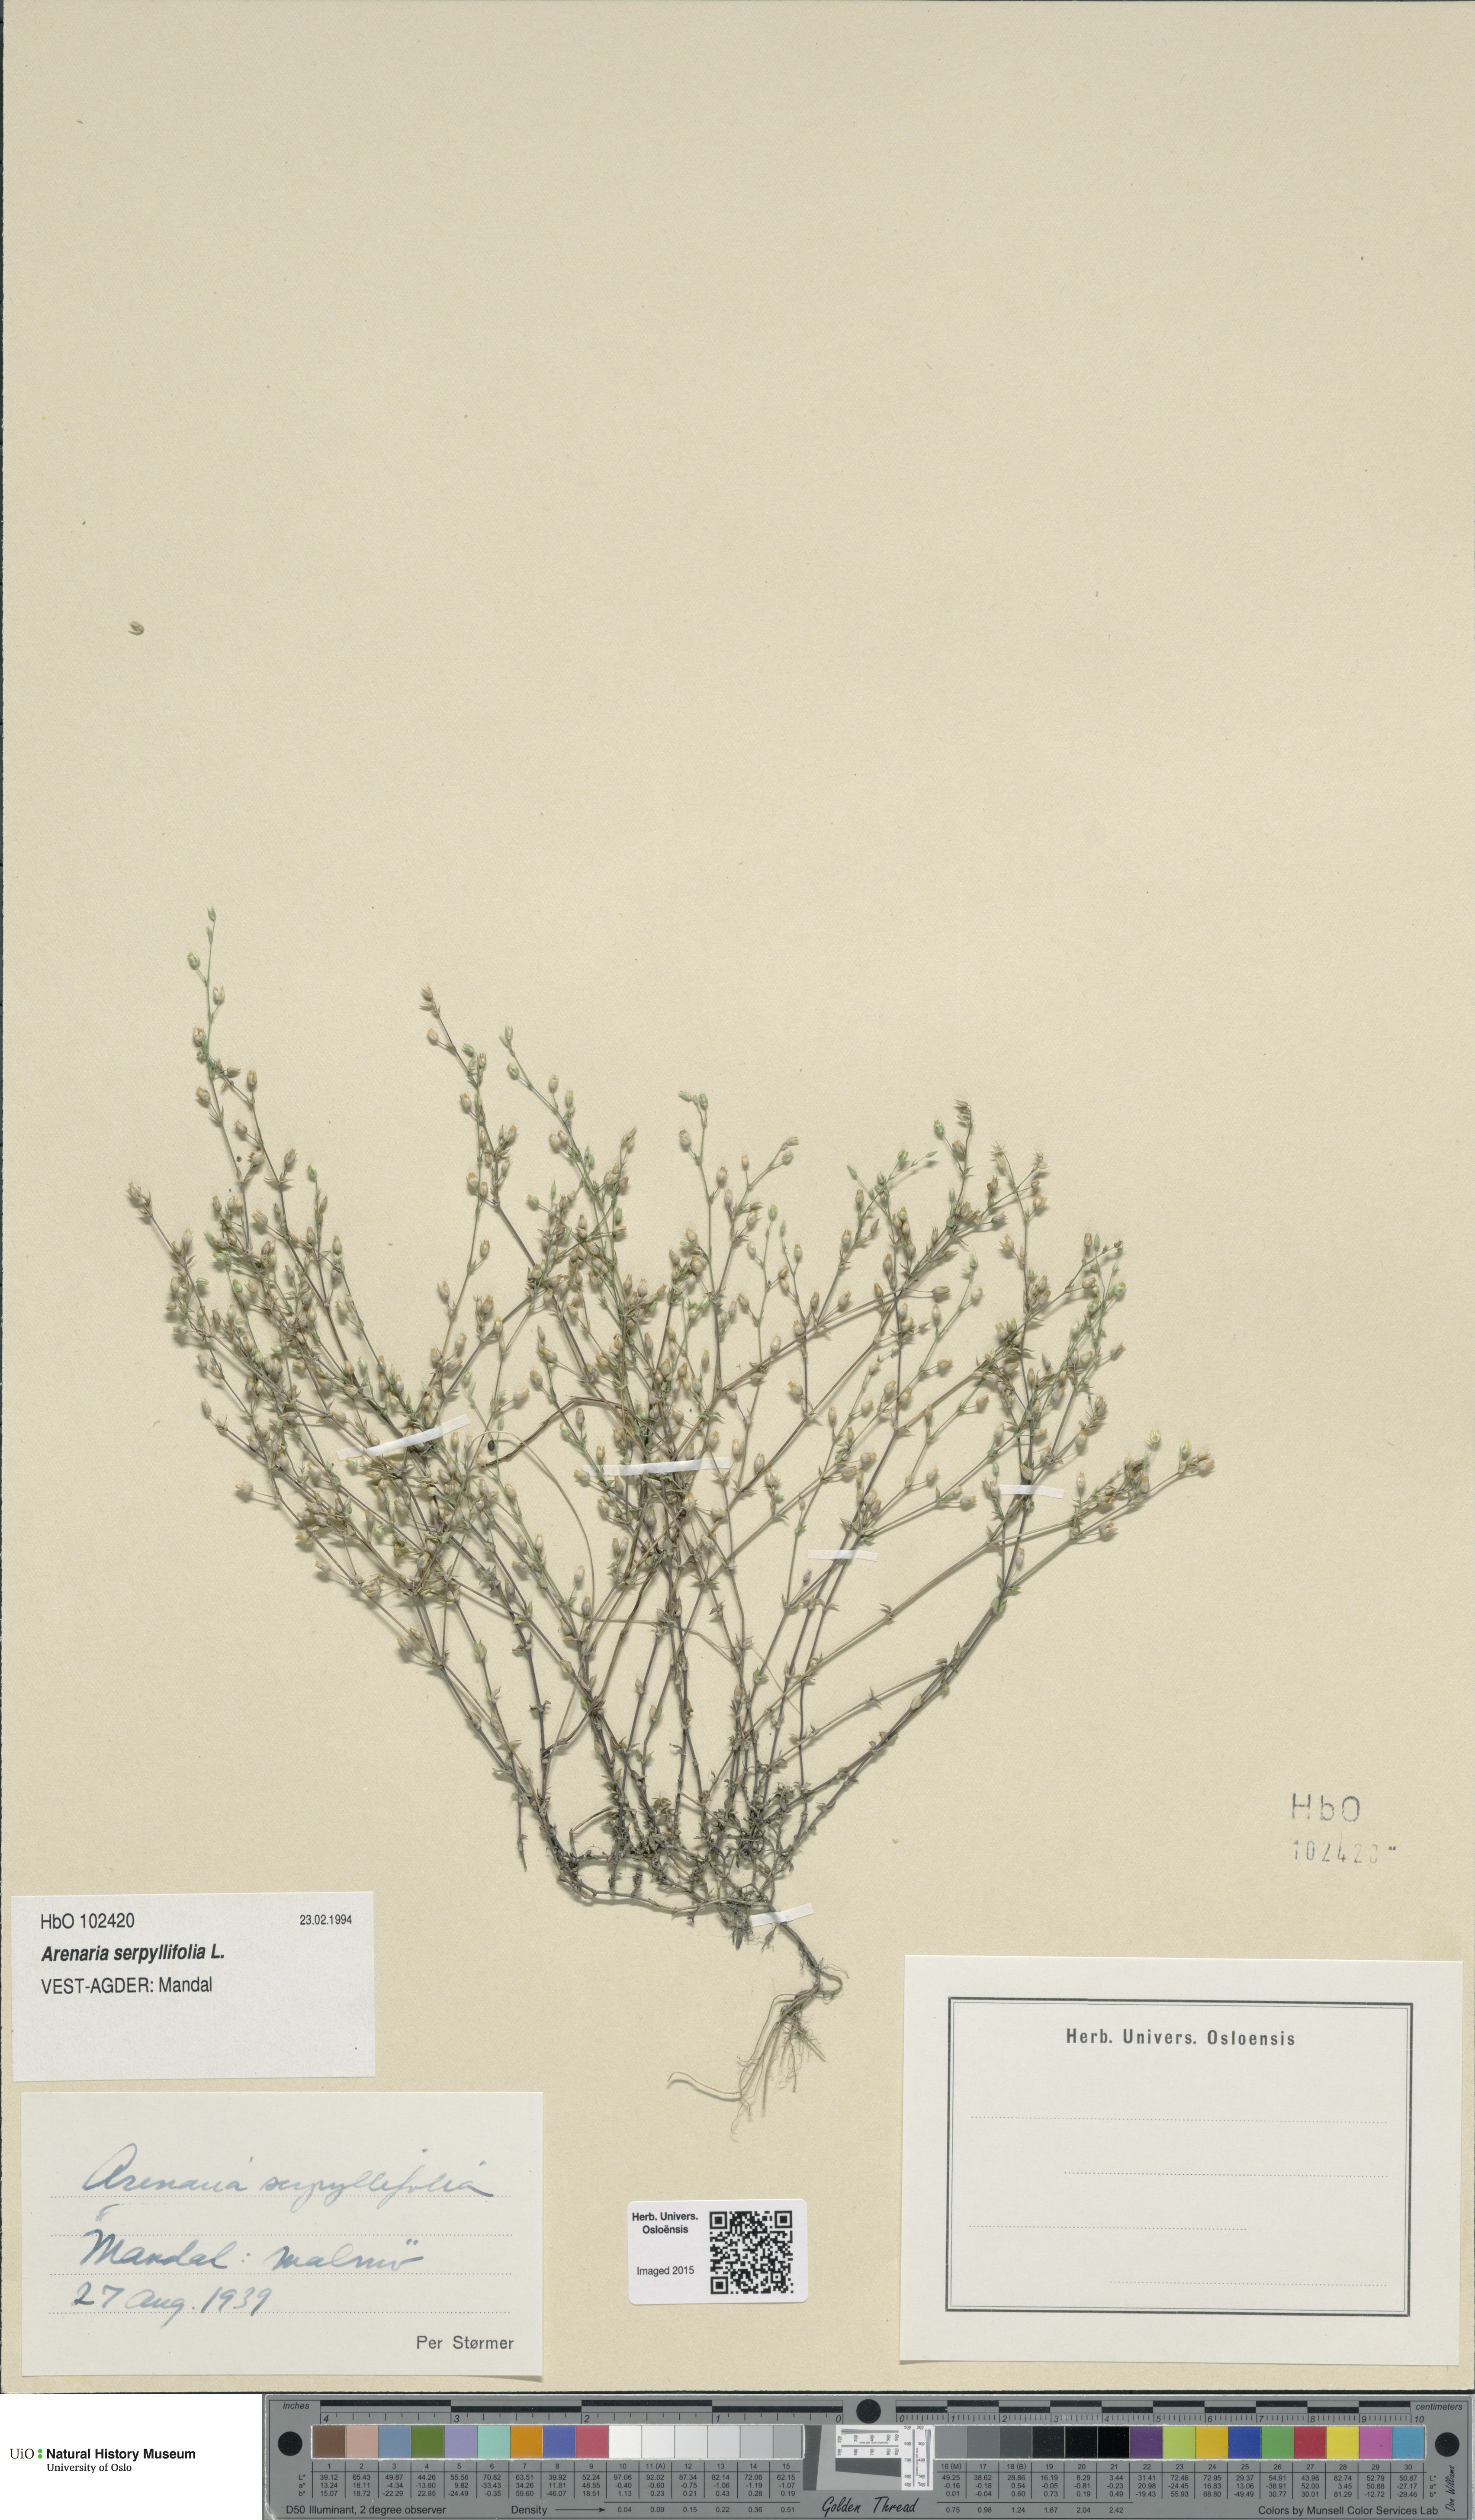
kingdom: Plantae
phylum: Tracheophyta
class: Magnoliopsida
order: Caryophyllales
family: Caryophyllaceae
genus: Arenaria
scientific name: Arenaria serpyllifolia
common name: Thyme-leaved sandwort
